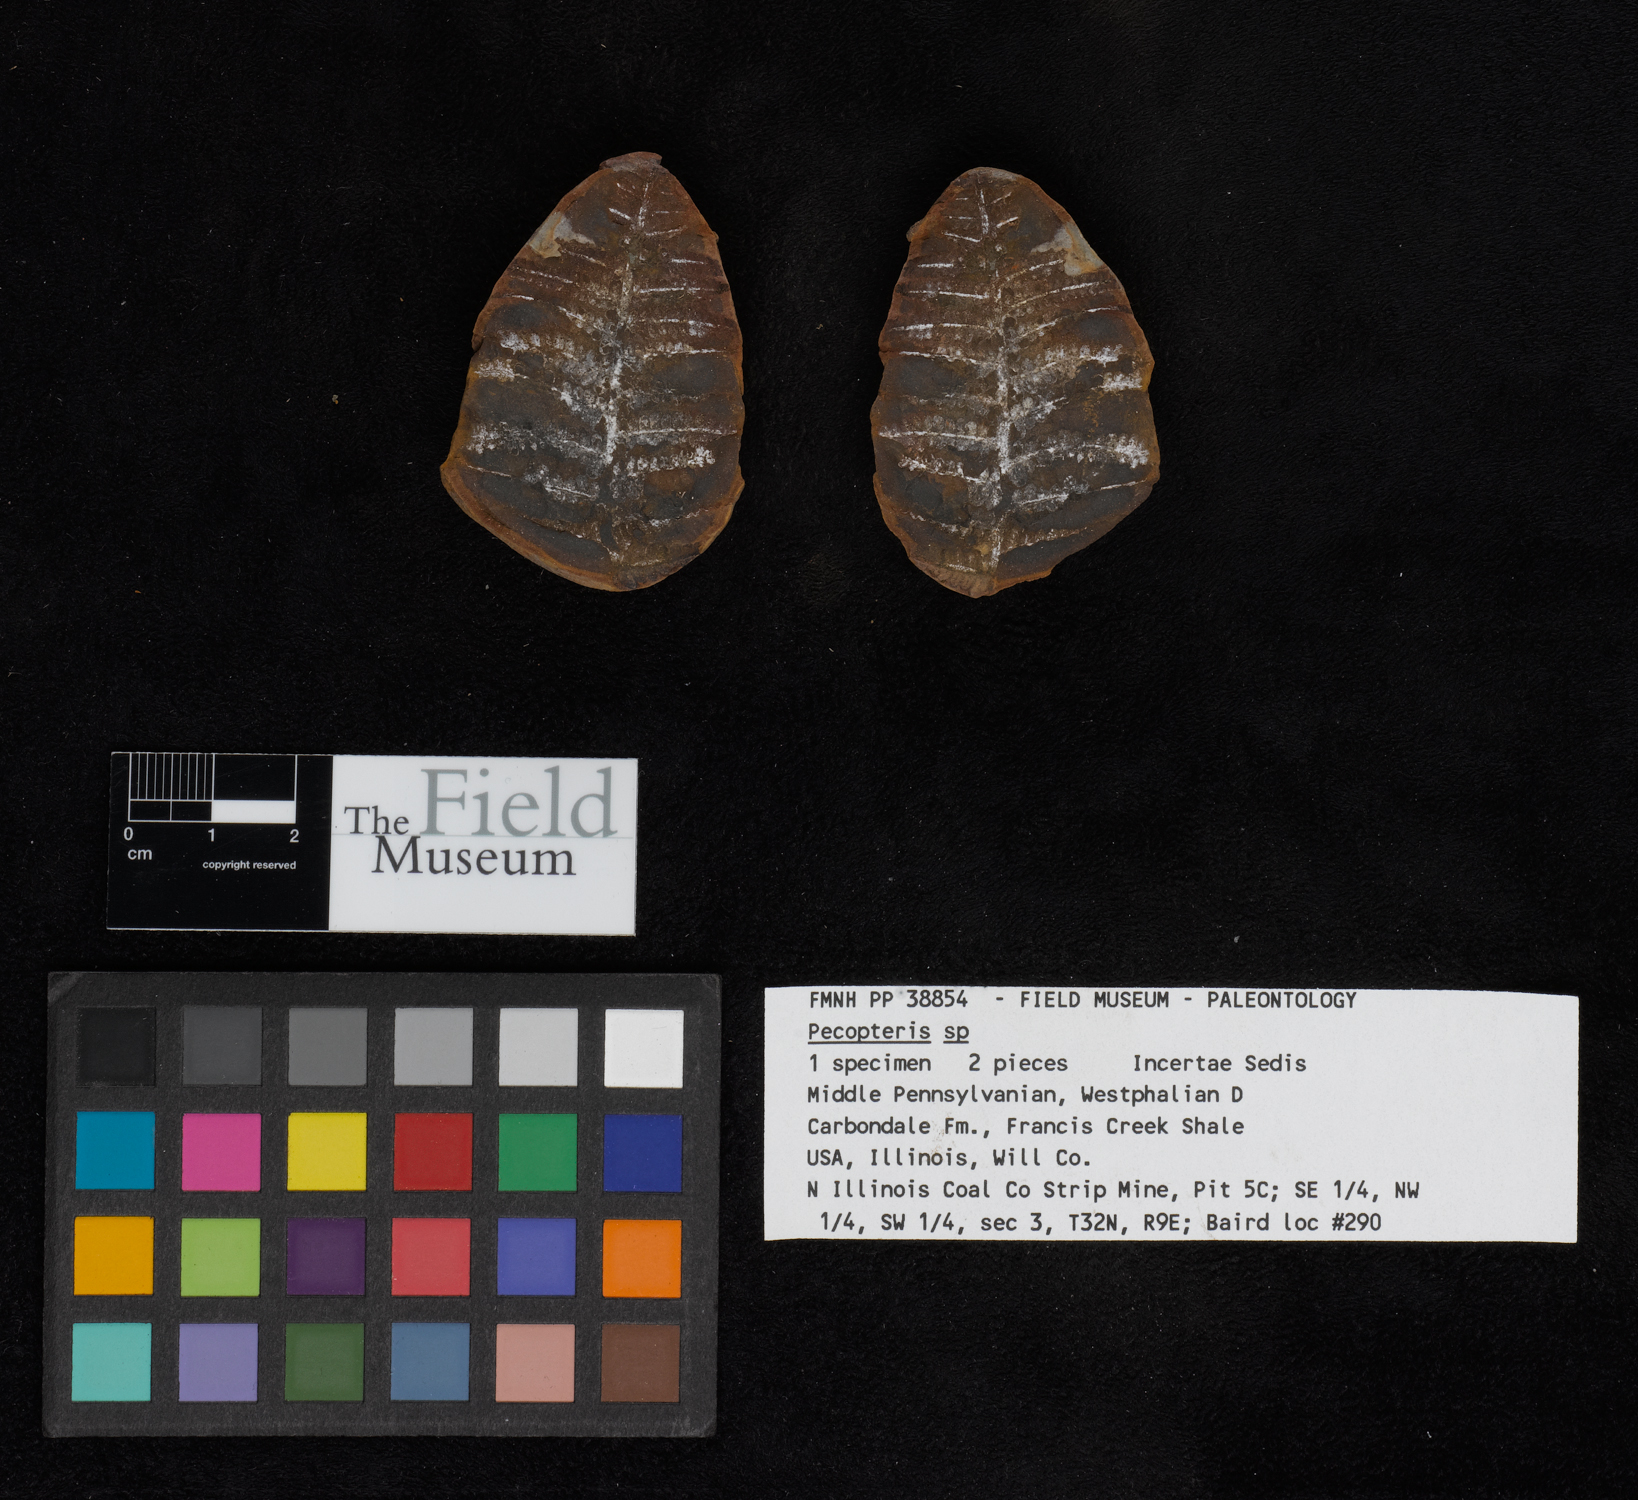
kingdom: Plantae
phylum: Tracheophyta
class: Polypodiopsida
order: Marattiales
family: Asterothecaceae
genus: Pecopteris
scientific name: Pecopteris
